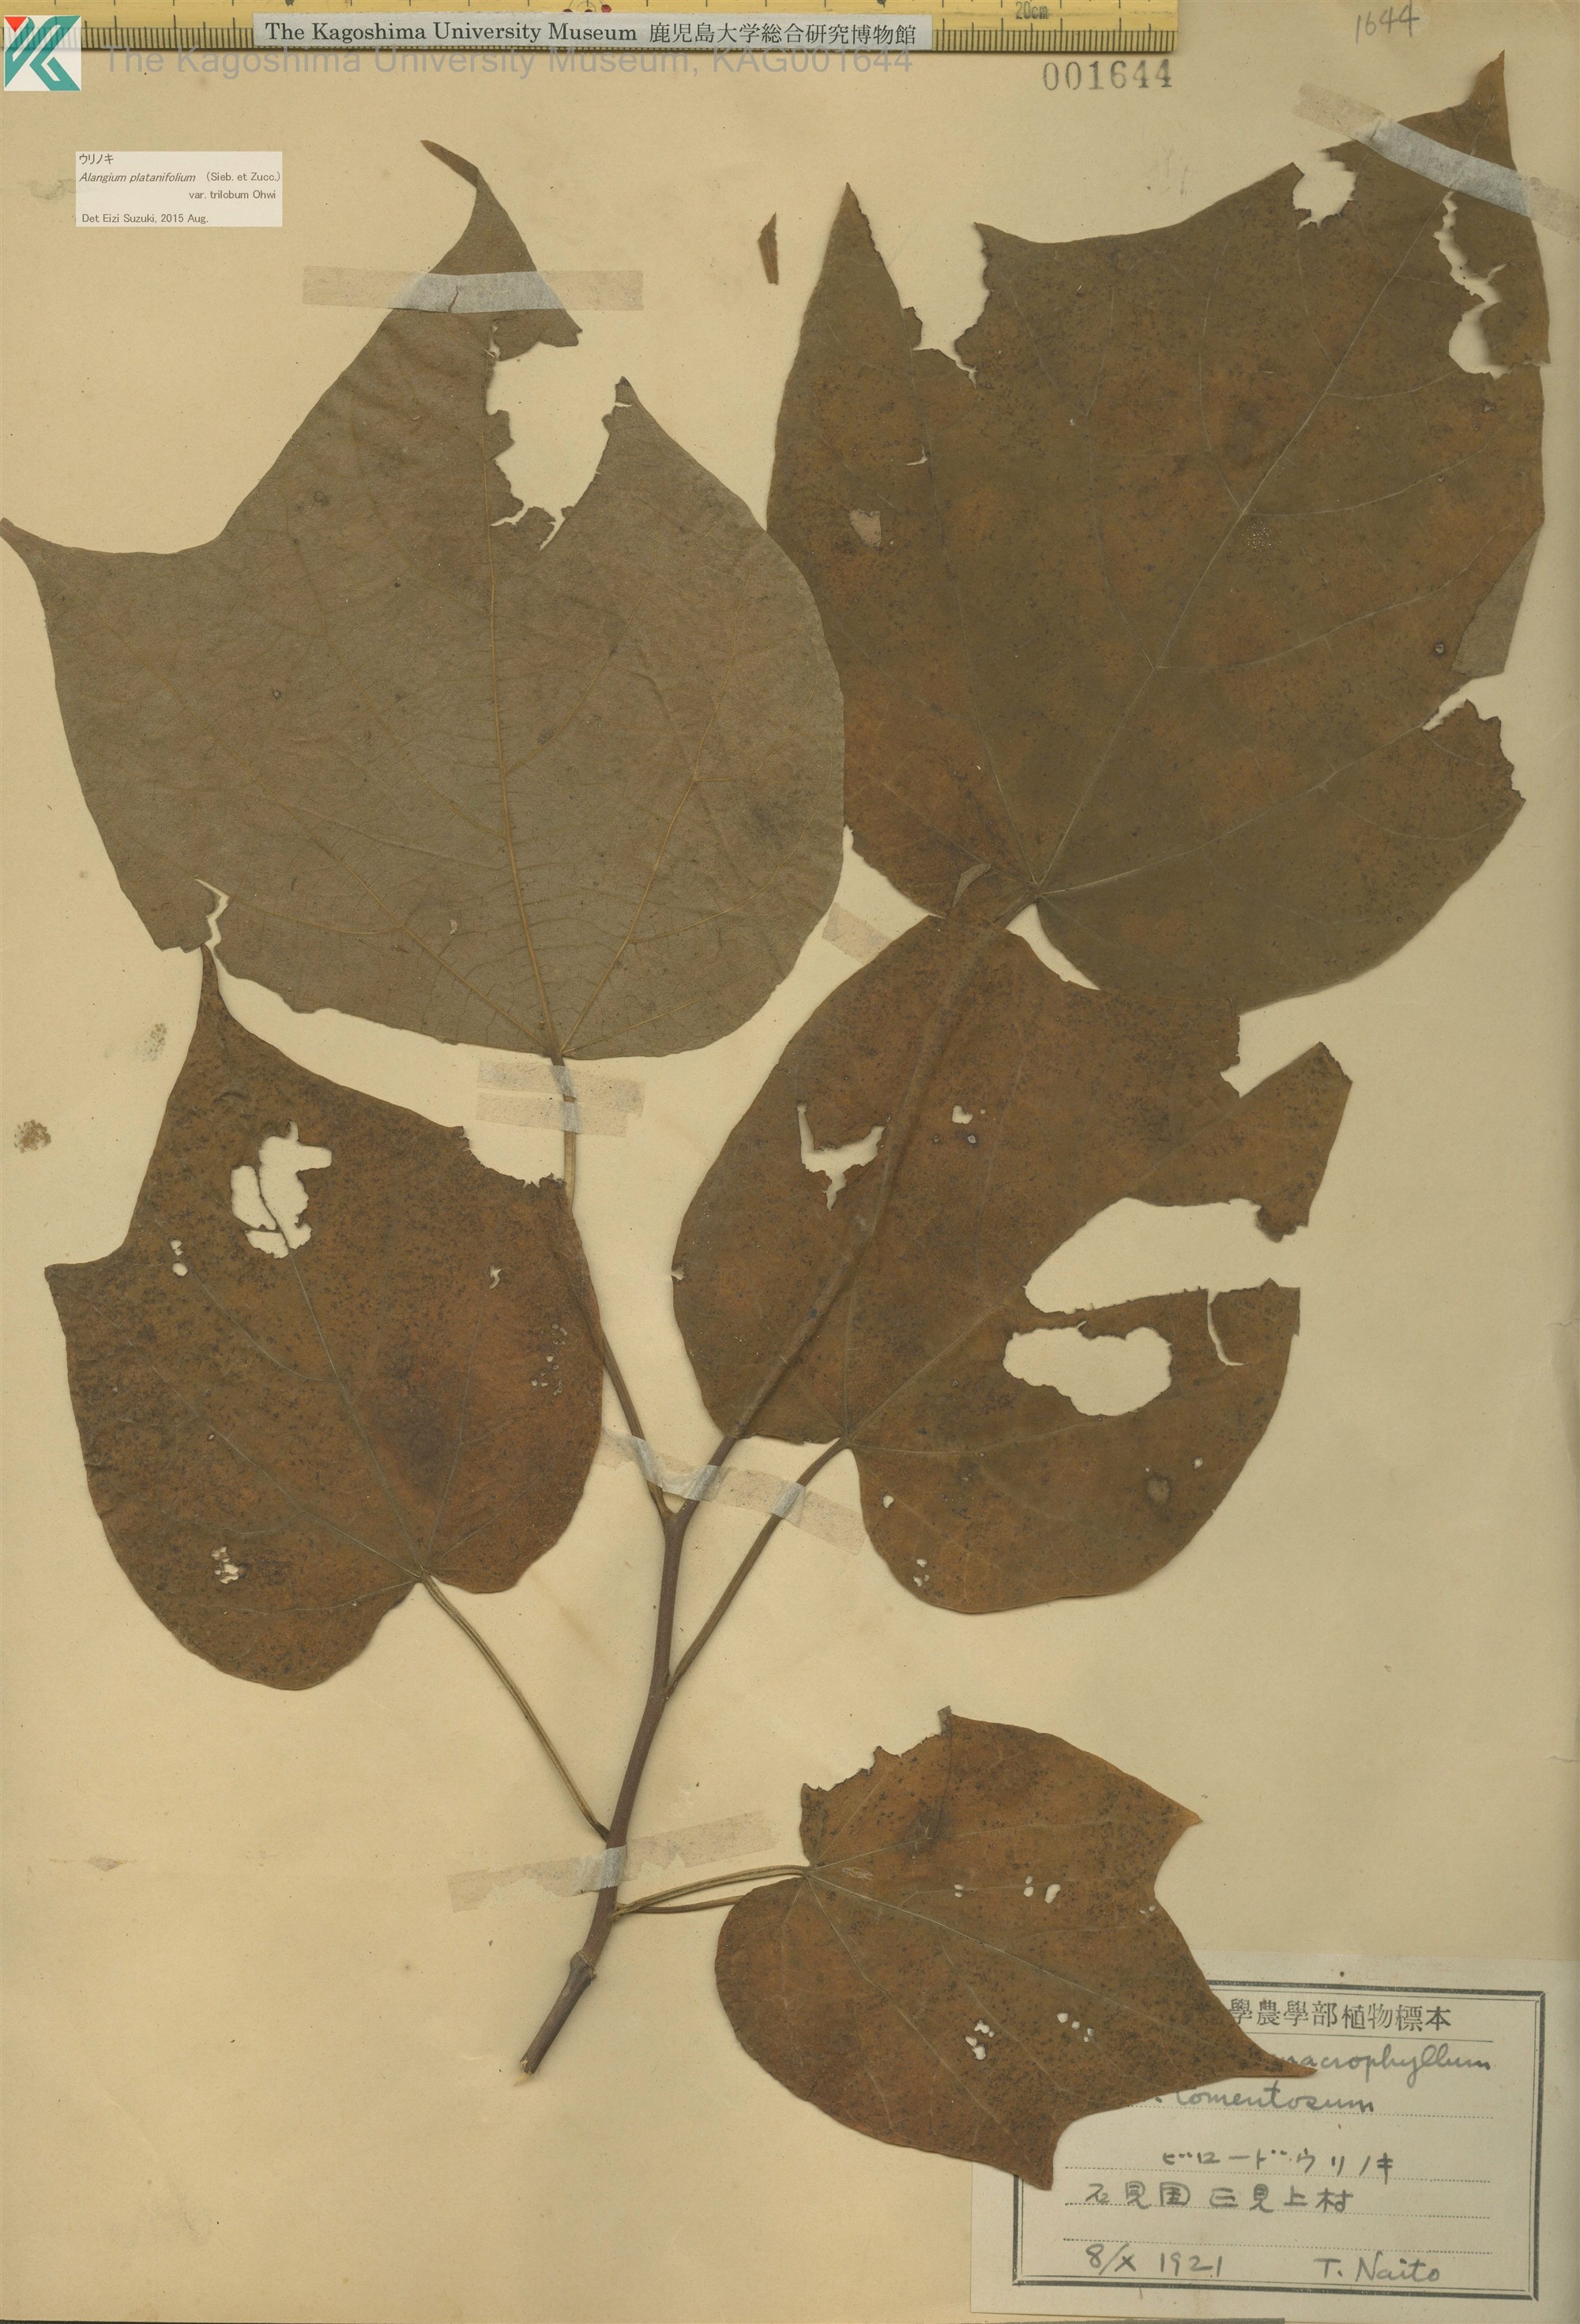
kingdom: Plantae
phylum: Tracheophyta
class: Magnoliopsida
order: Cornales
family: Cornaceae
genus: Alangium
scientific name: Alangium platanifolium
